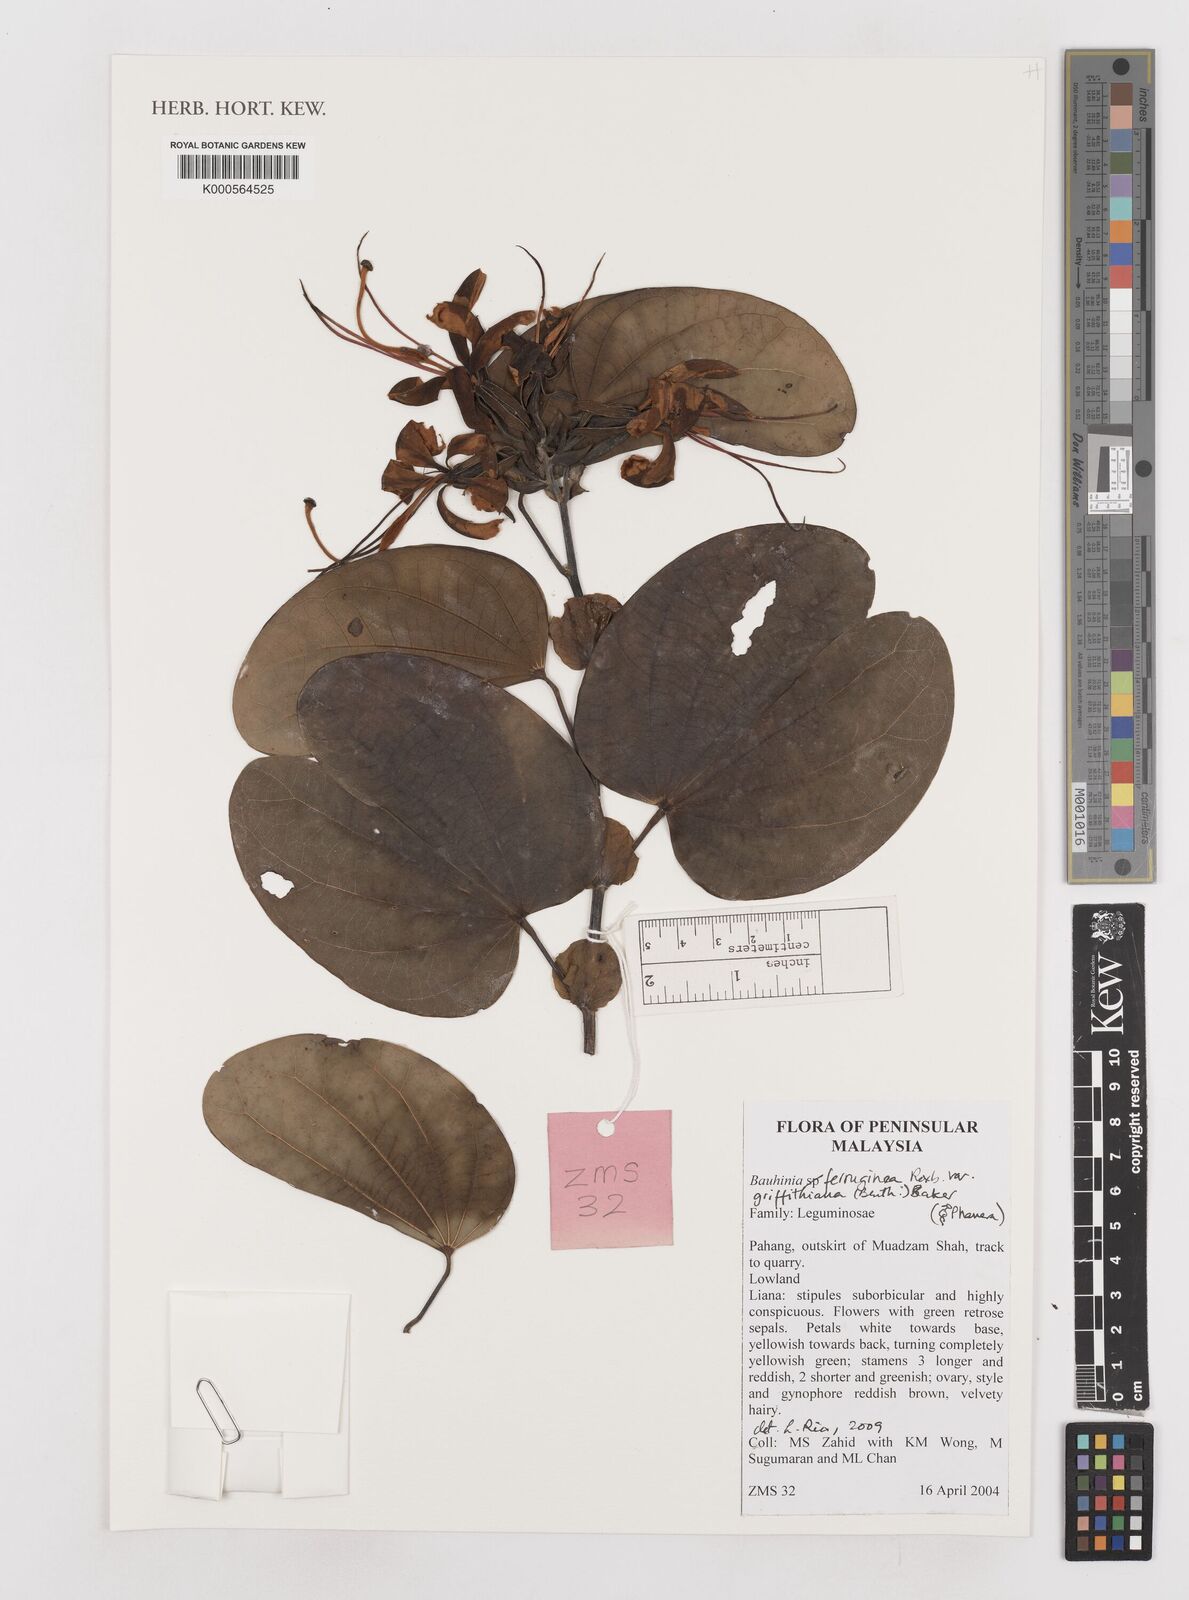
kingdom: Plantae
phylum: Tracheophyta
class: Magnoliopsida
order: Fabales
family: Fabaceae
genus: Phanera
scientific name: Phanera ferruginea
